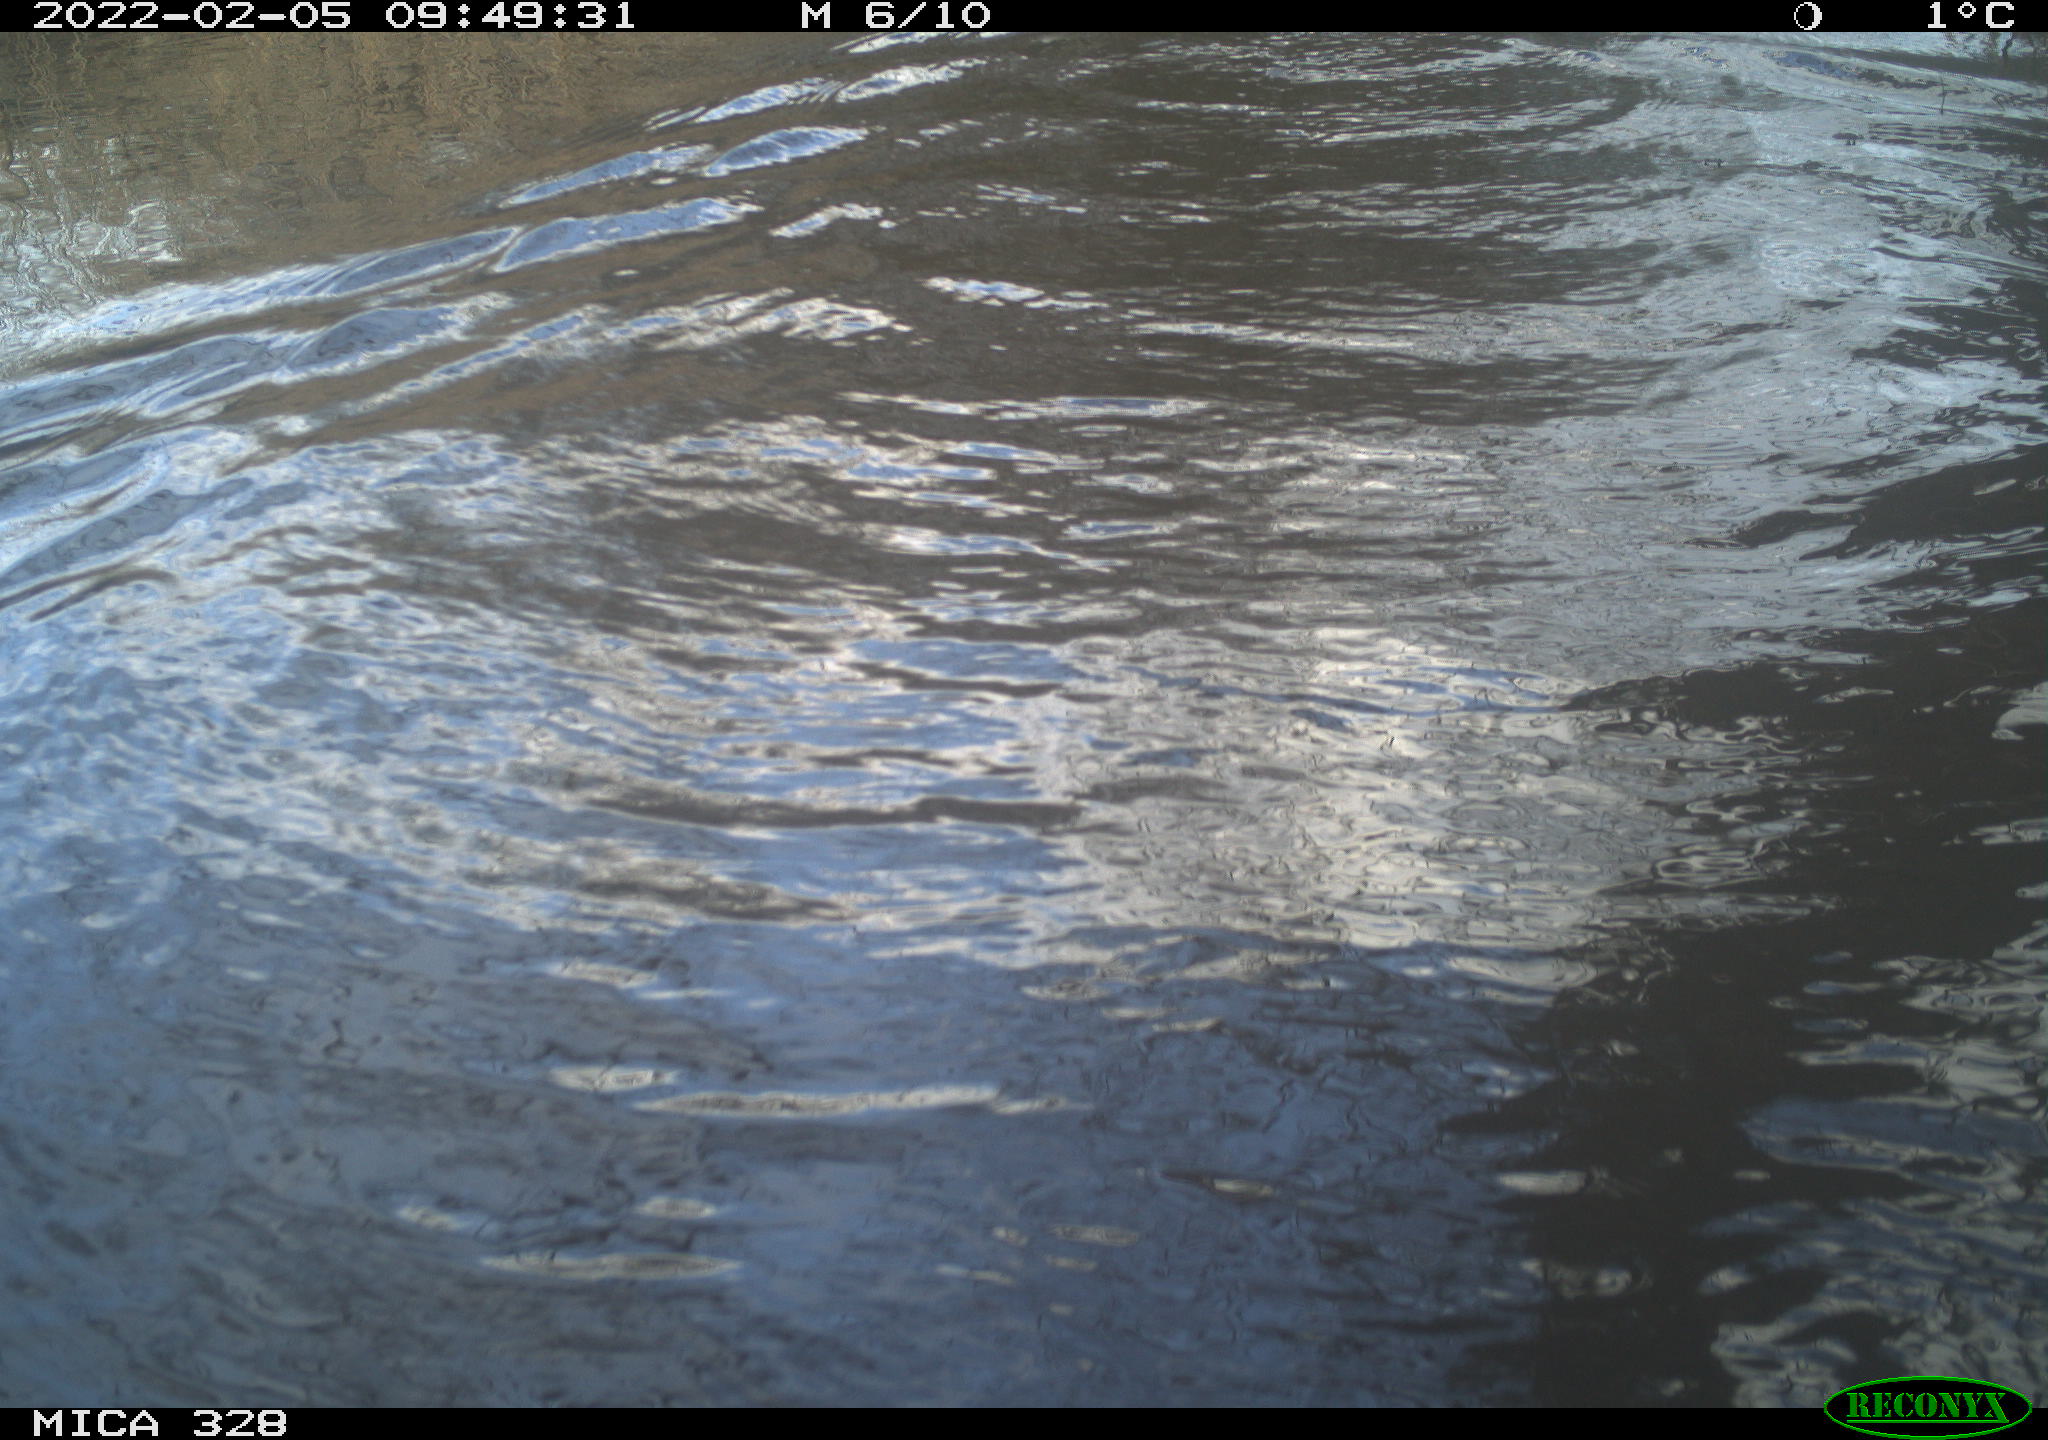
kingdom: Animalia
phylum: Chordata
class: Mammalia
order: Rodentia
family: Cricetidae
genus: Ondatra
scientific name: Ondatra zibethicus
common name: Muskrat
